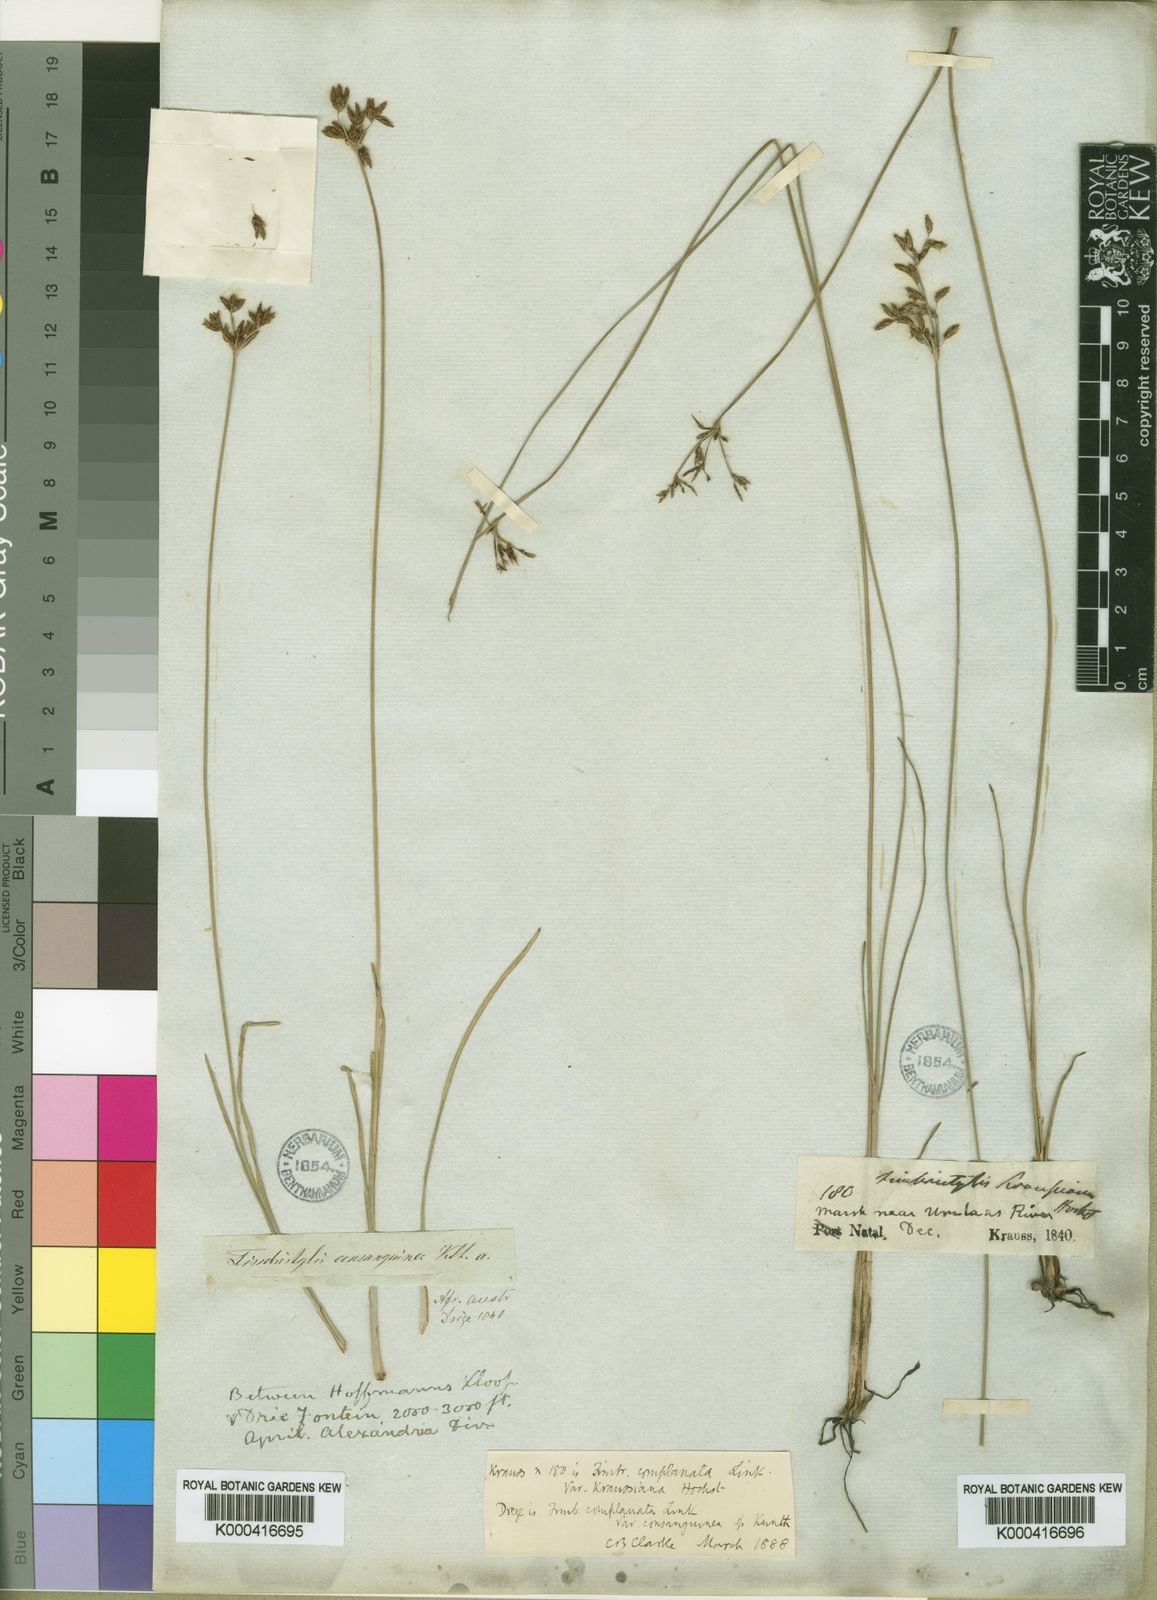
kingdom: Plantae
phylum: Tracheophyta
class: Liliopsida
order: Poales
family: Cyperaceae
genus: Fimbristylis
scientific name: Fimbristylis complanata
